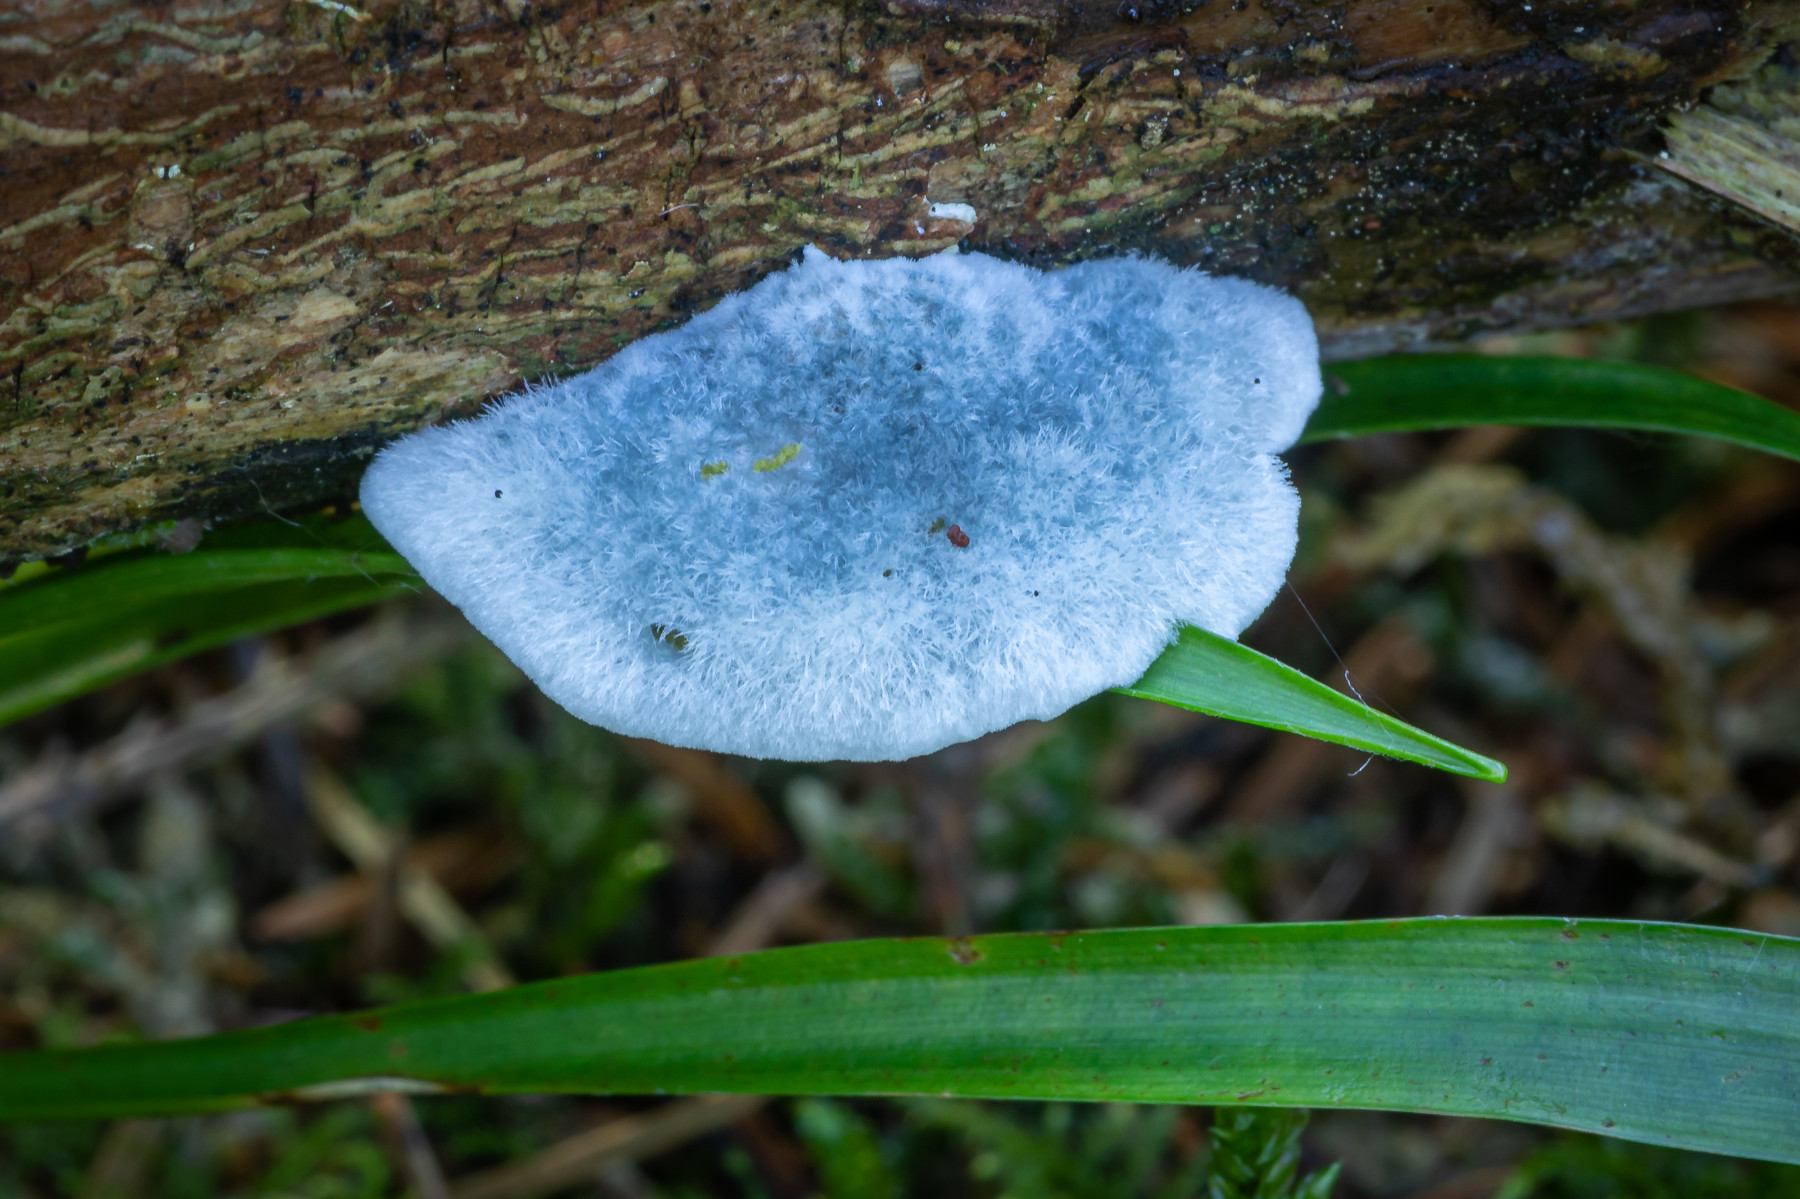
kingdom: Fungi
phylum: Basidiomycota
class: Agaricomycetes
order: Polyporales
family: Polyporaceae
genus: Cyanosporus
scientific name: Cyanosporus caesius
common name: blålig kødporesvamp
